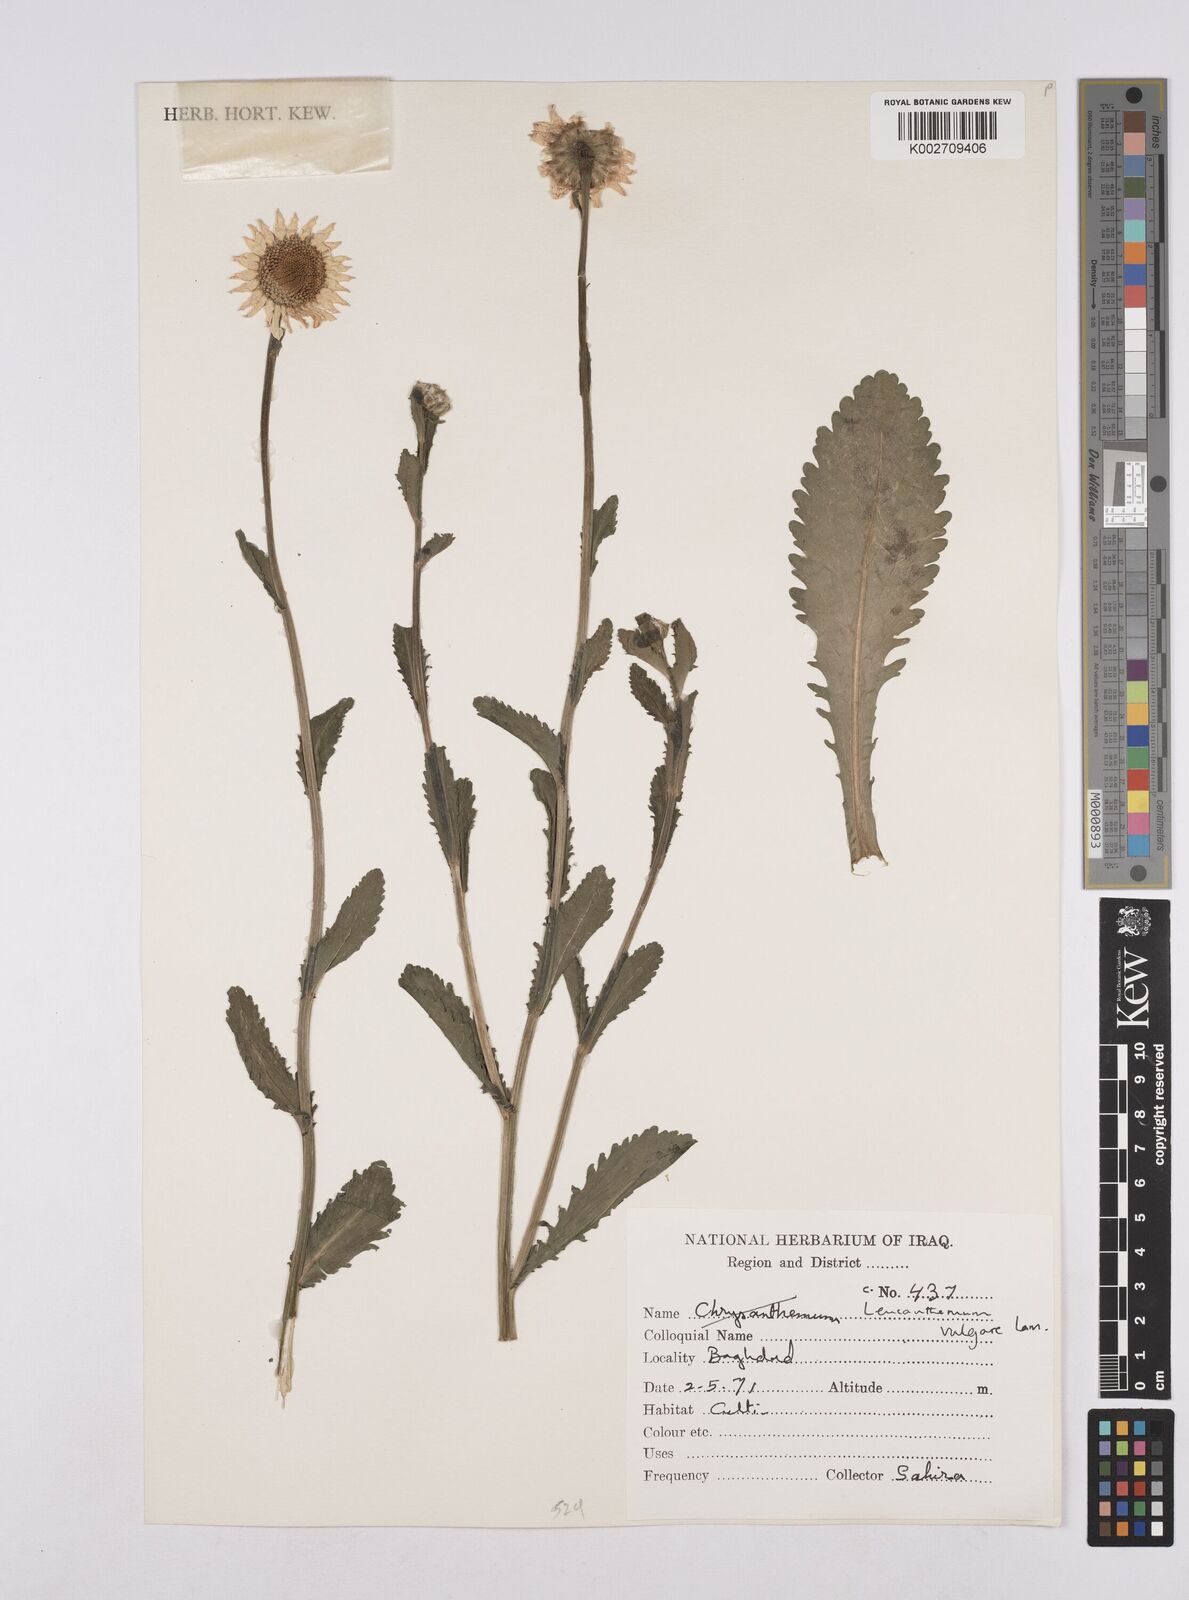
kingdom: Plantae
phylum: Tracheophyta
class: Magnoliopsida
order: Asterales
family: Asteraceae
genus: Leucanthemum
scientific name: Leucanthemum
